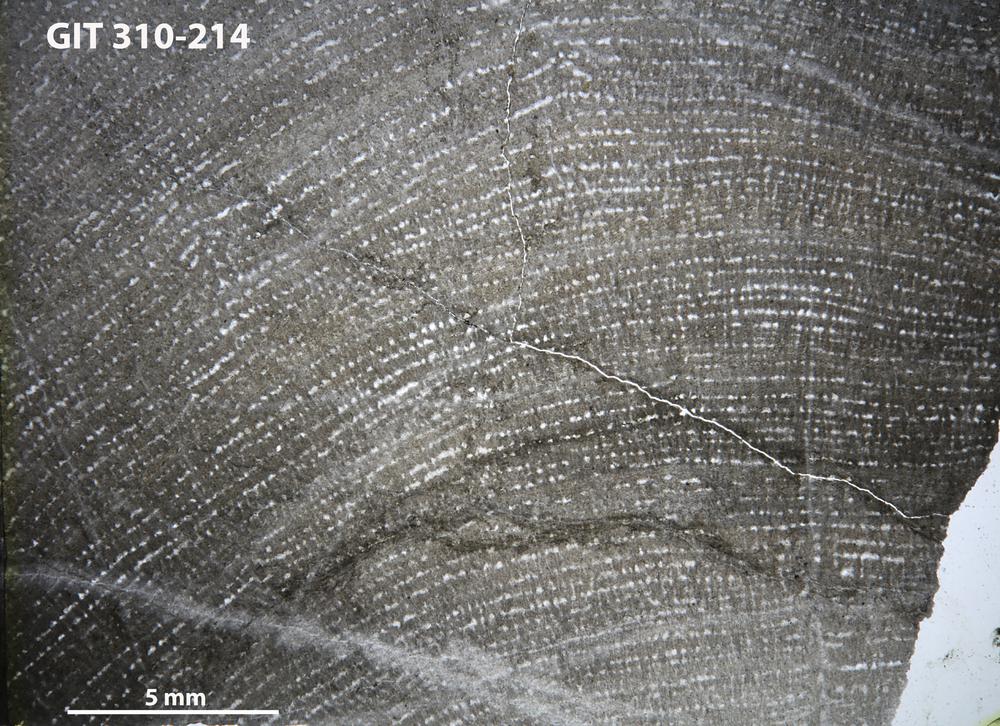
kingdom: Animalia
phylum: Porifera
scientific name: Porifera
